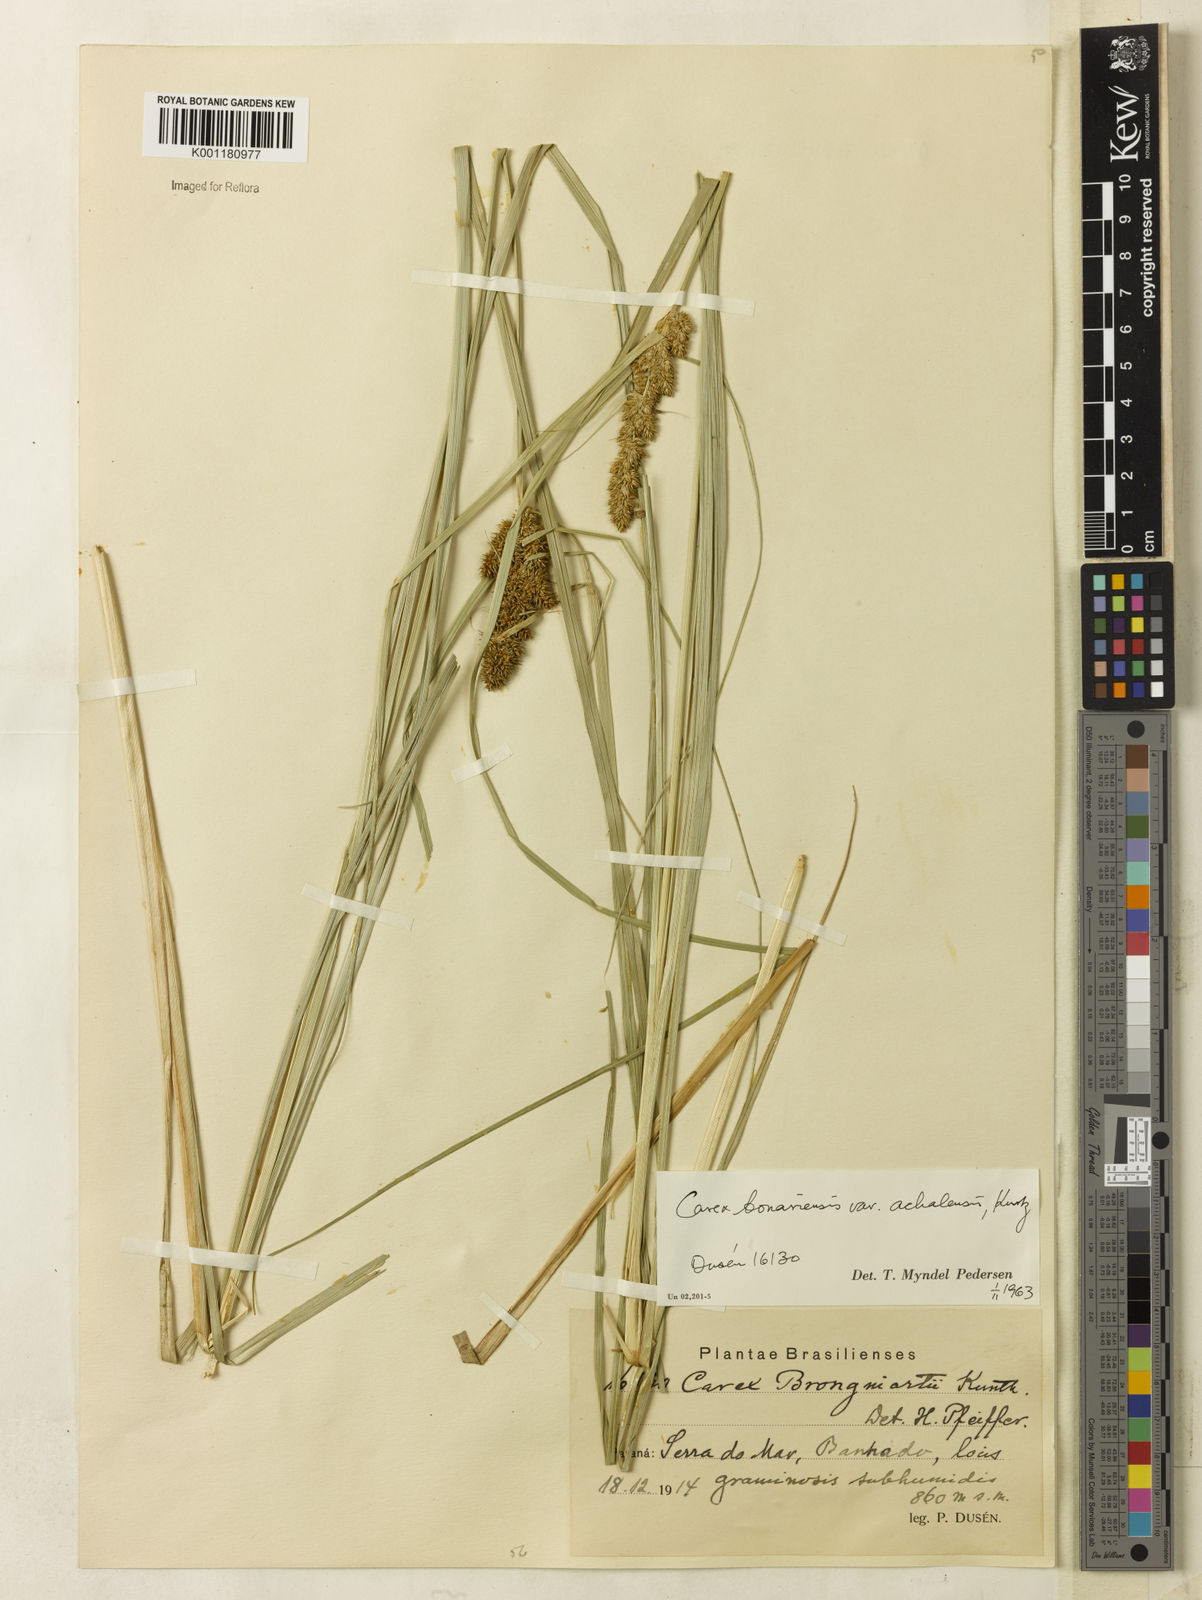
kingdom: Plantae
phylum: Tracheophyta
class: Liliopsida
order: Poales
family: Cyperaceae
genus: Carex
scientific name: Carex bonariensis
